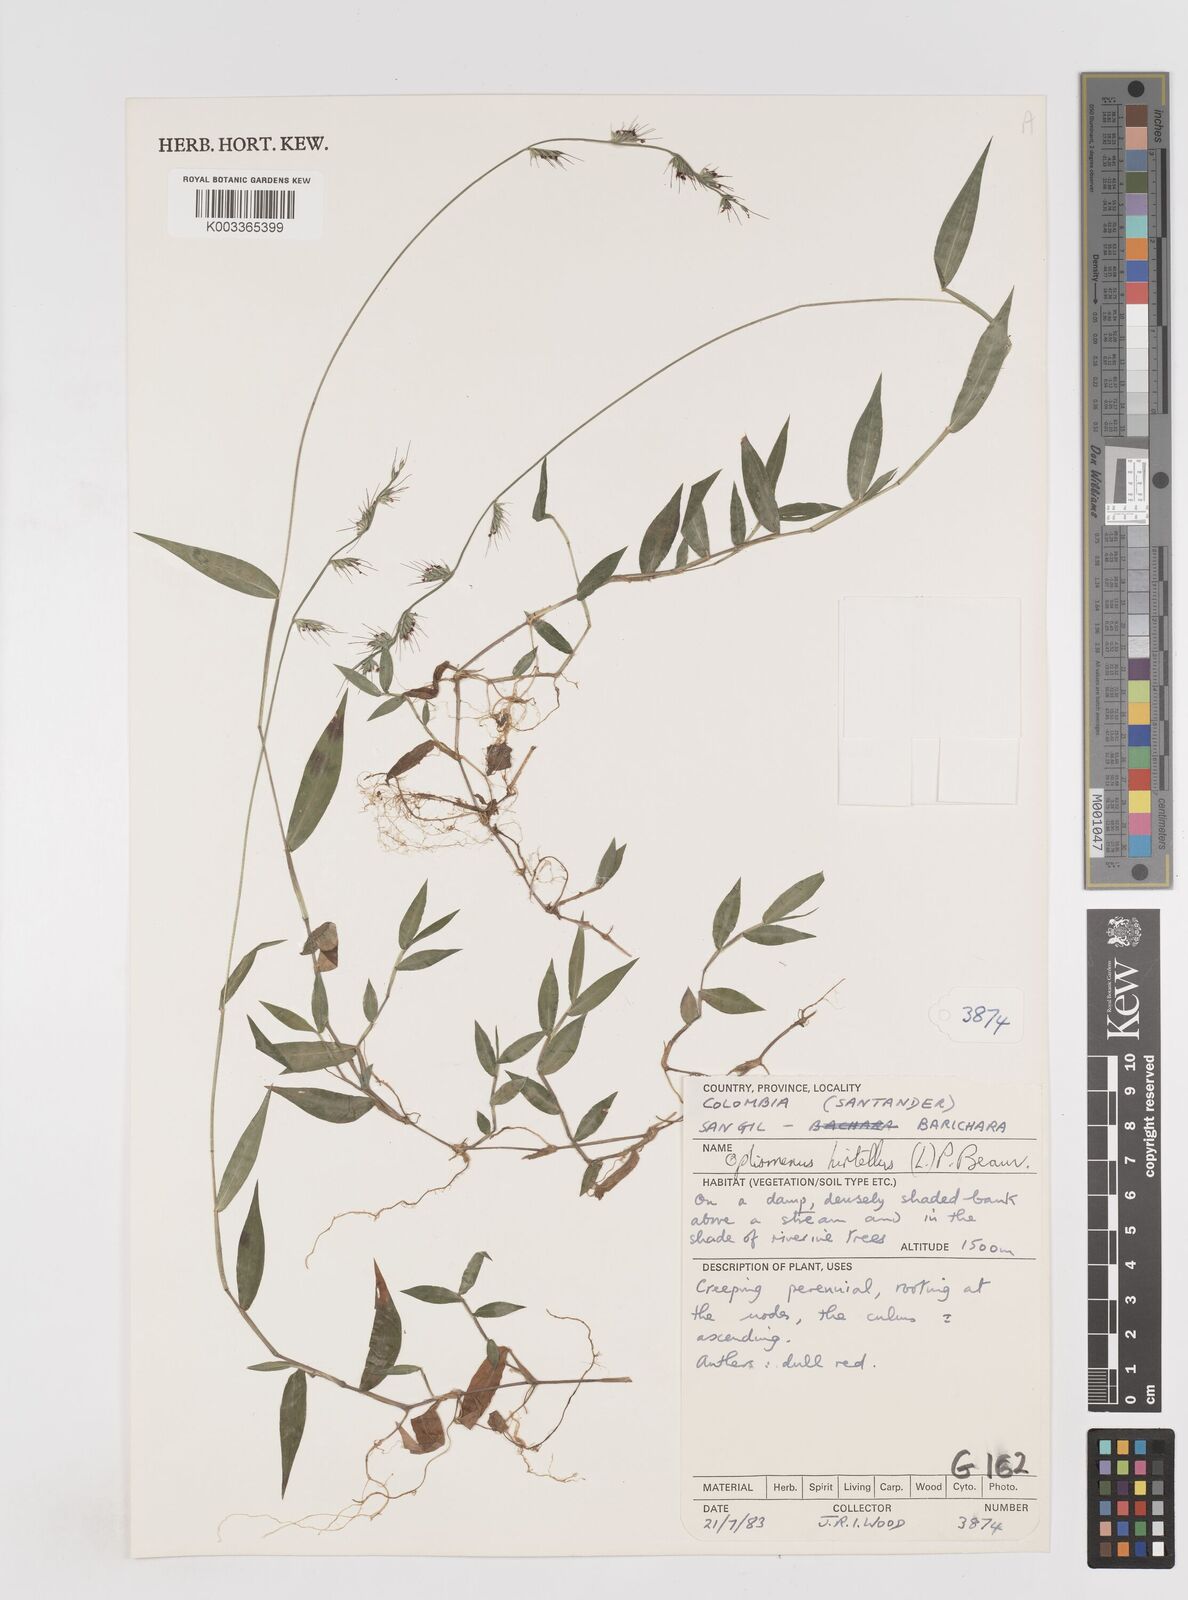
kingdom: Plantae
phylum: Tracheophyta
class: Liliopsida
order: Poales
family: Poaceae
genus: Oplismenus
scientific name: Oplismenus hirtellus
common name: Basketgrass
